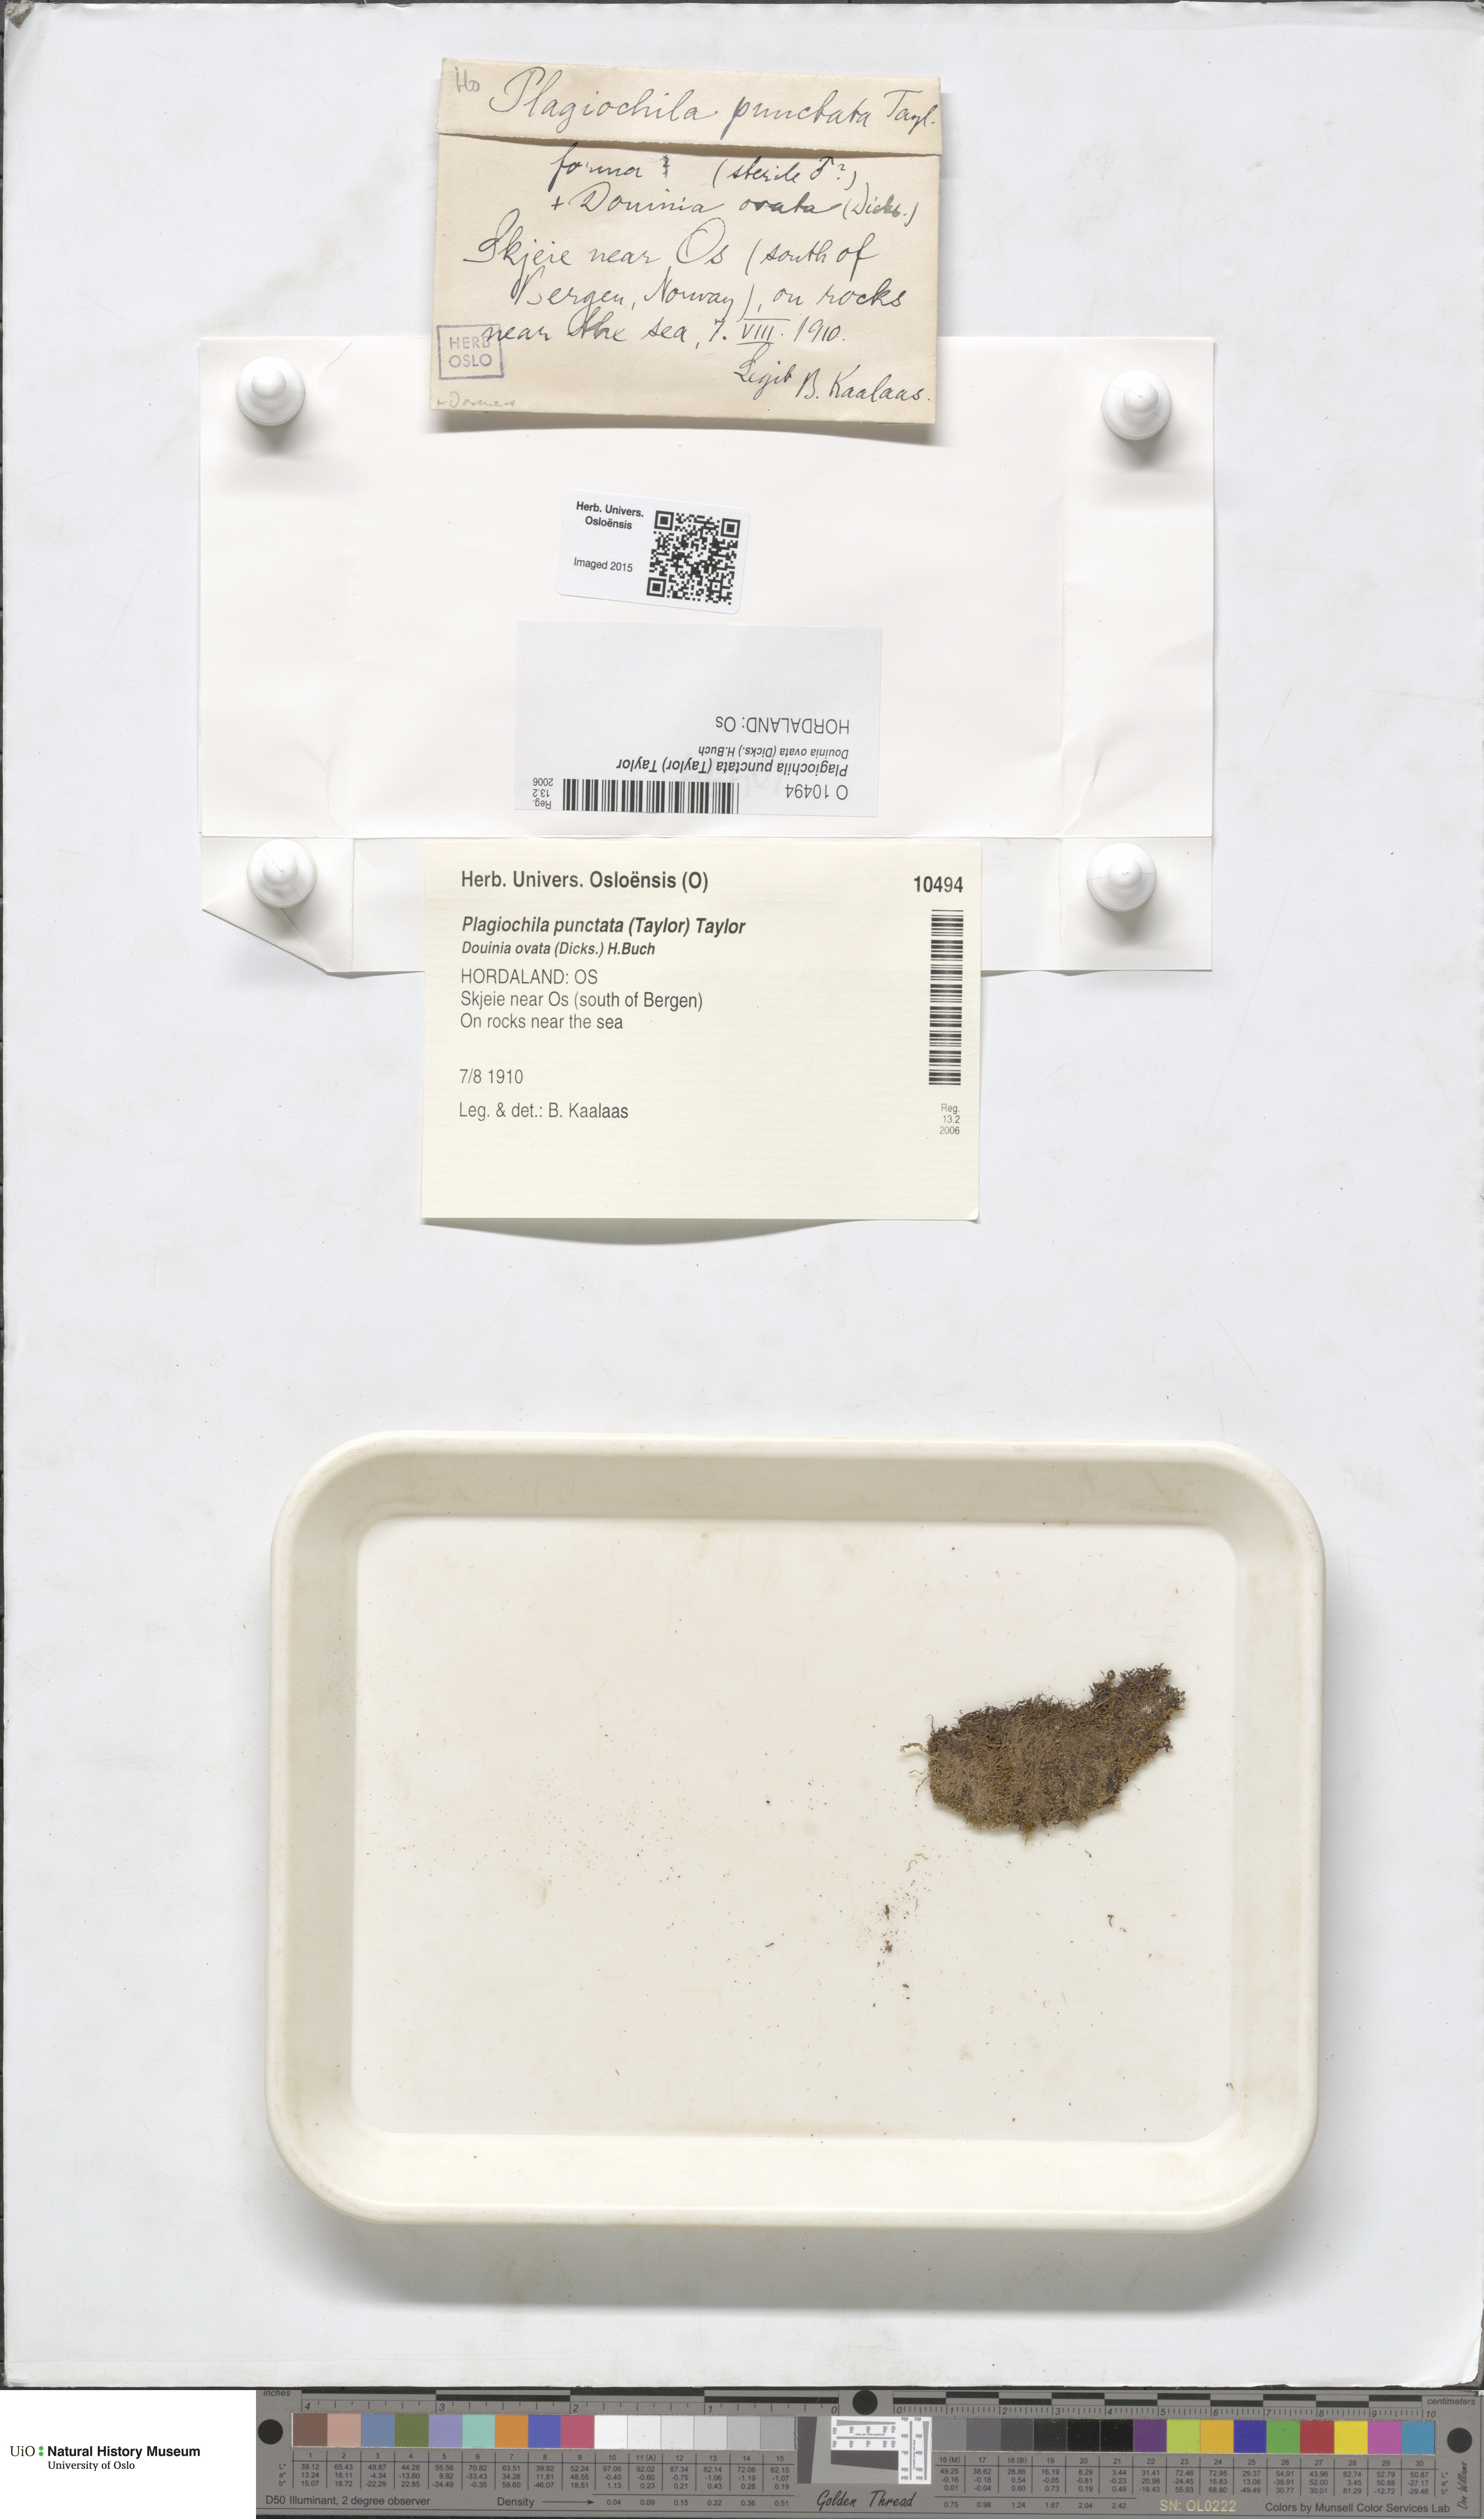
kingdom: Plantae
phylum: Marchantiophyta
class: Jungermanniopsida
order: Jungermanniales
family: Plagiochilaceae
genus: Plagiochila
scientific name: Plagiochila punctata
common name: Spotty featherwort
